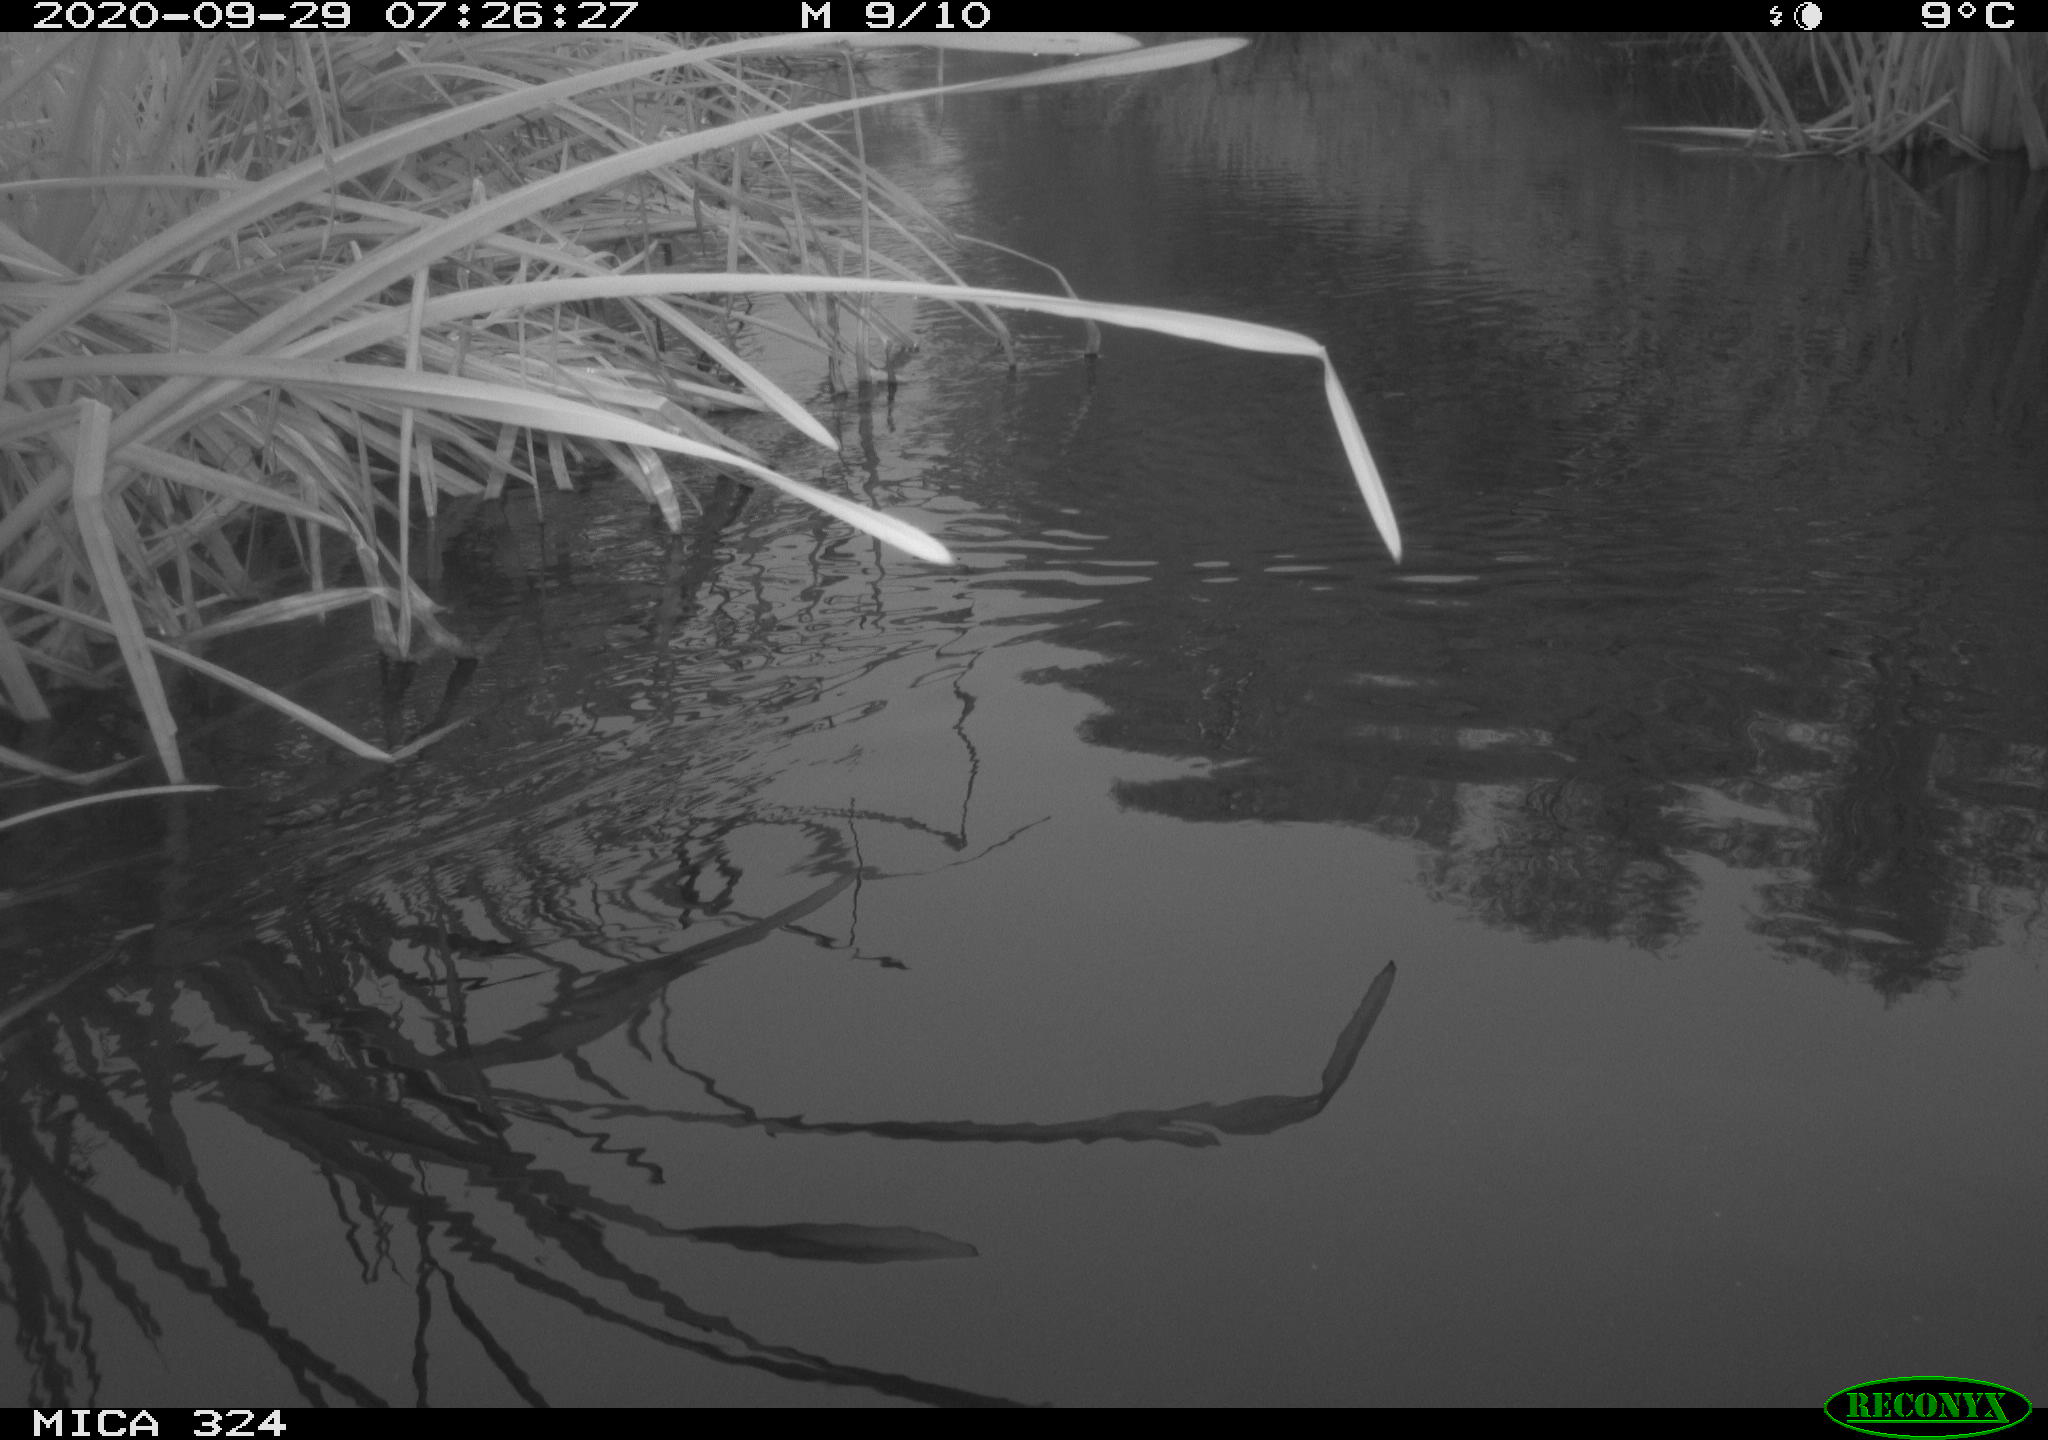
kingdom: Animalia
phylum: Chordata
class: Aves
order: Gruiformes
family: Rallidae
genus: Gallinula
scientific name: Gallinula chloropus
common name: Common moorhen
